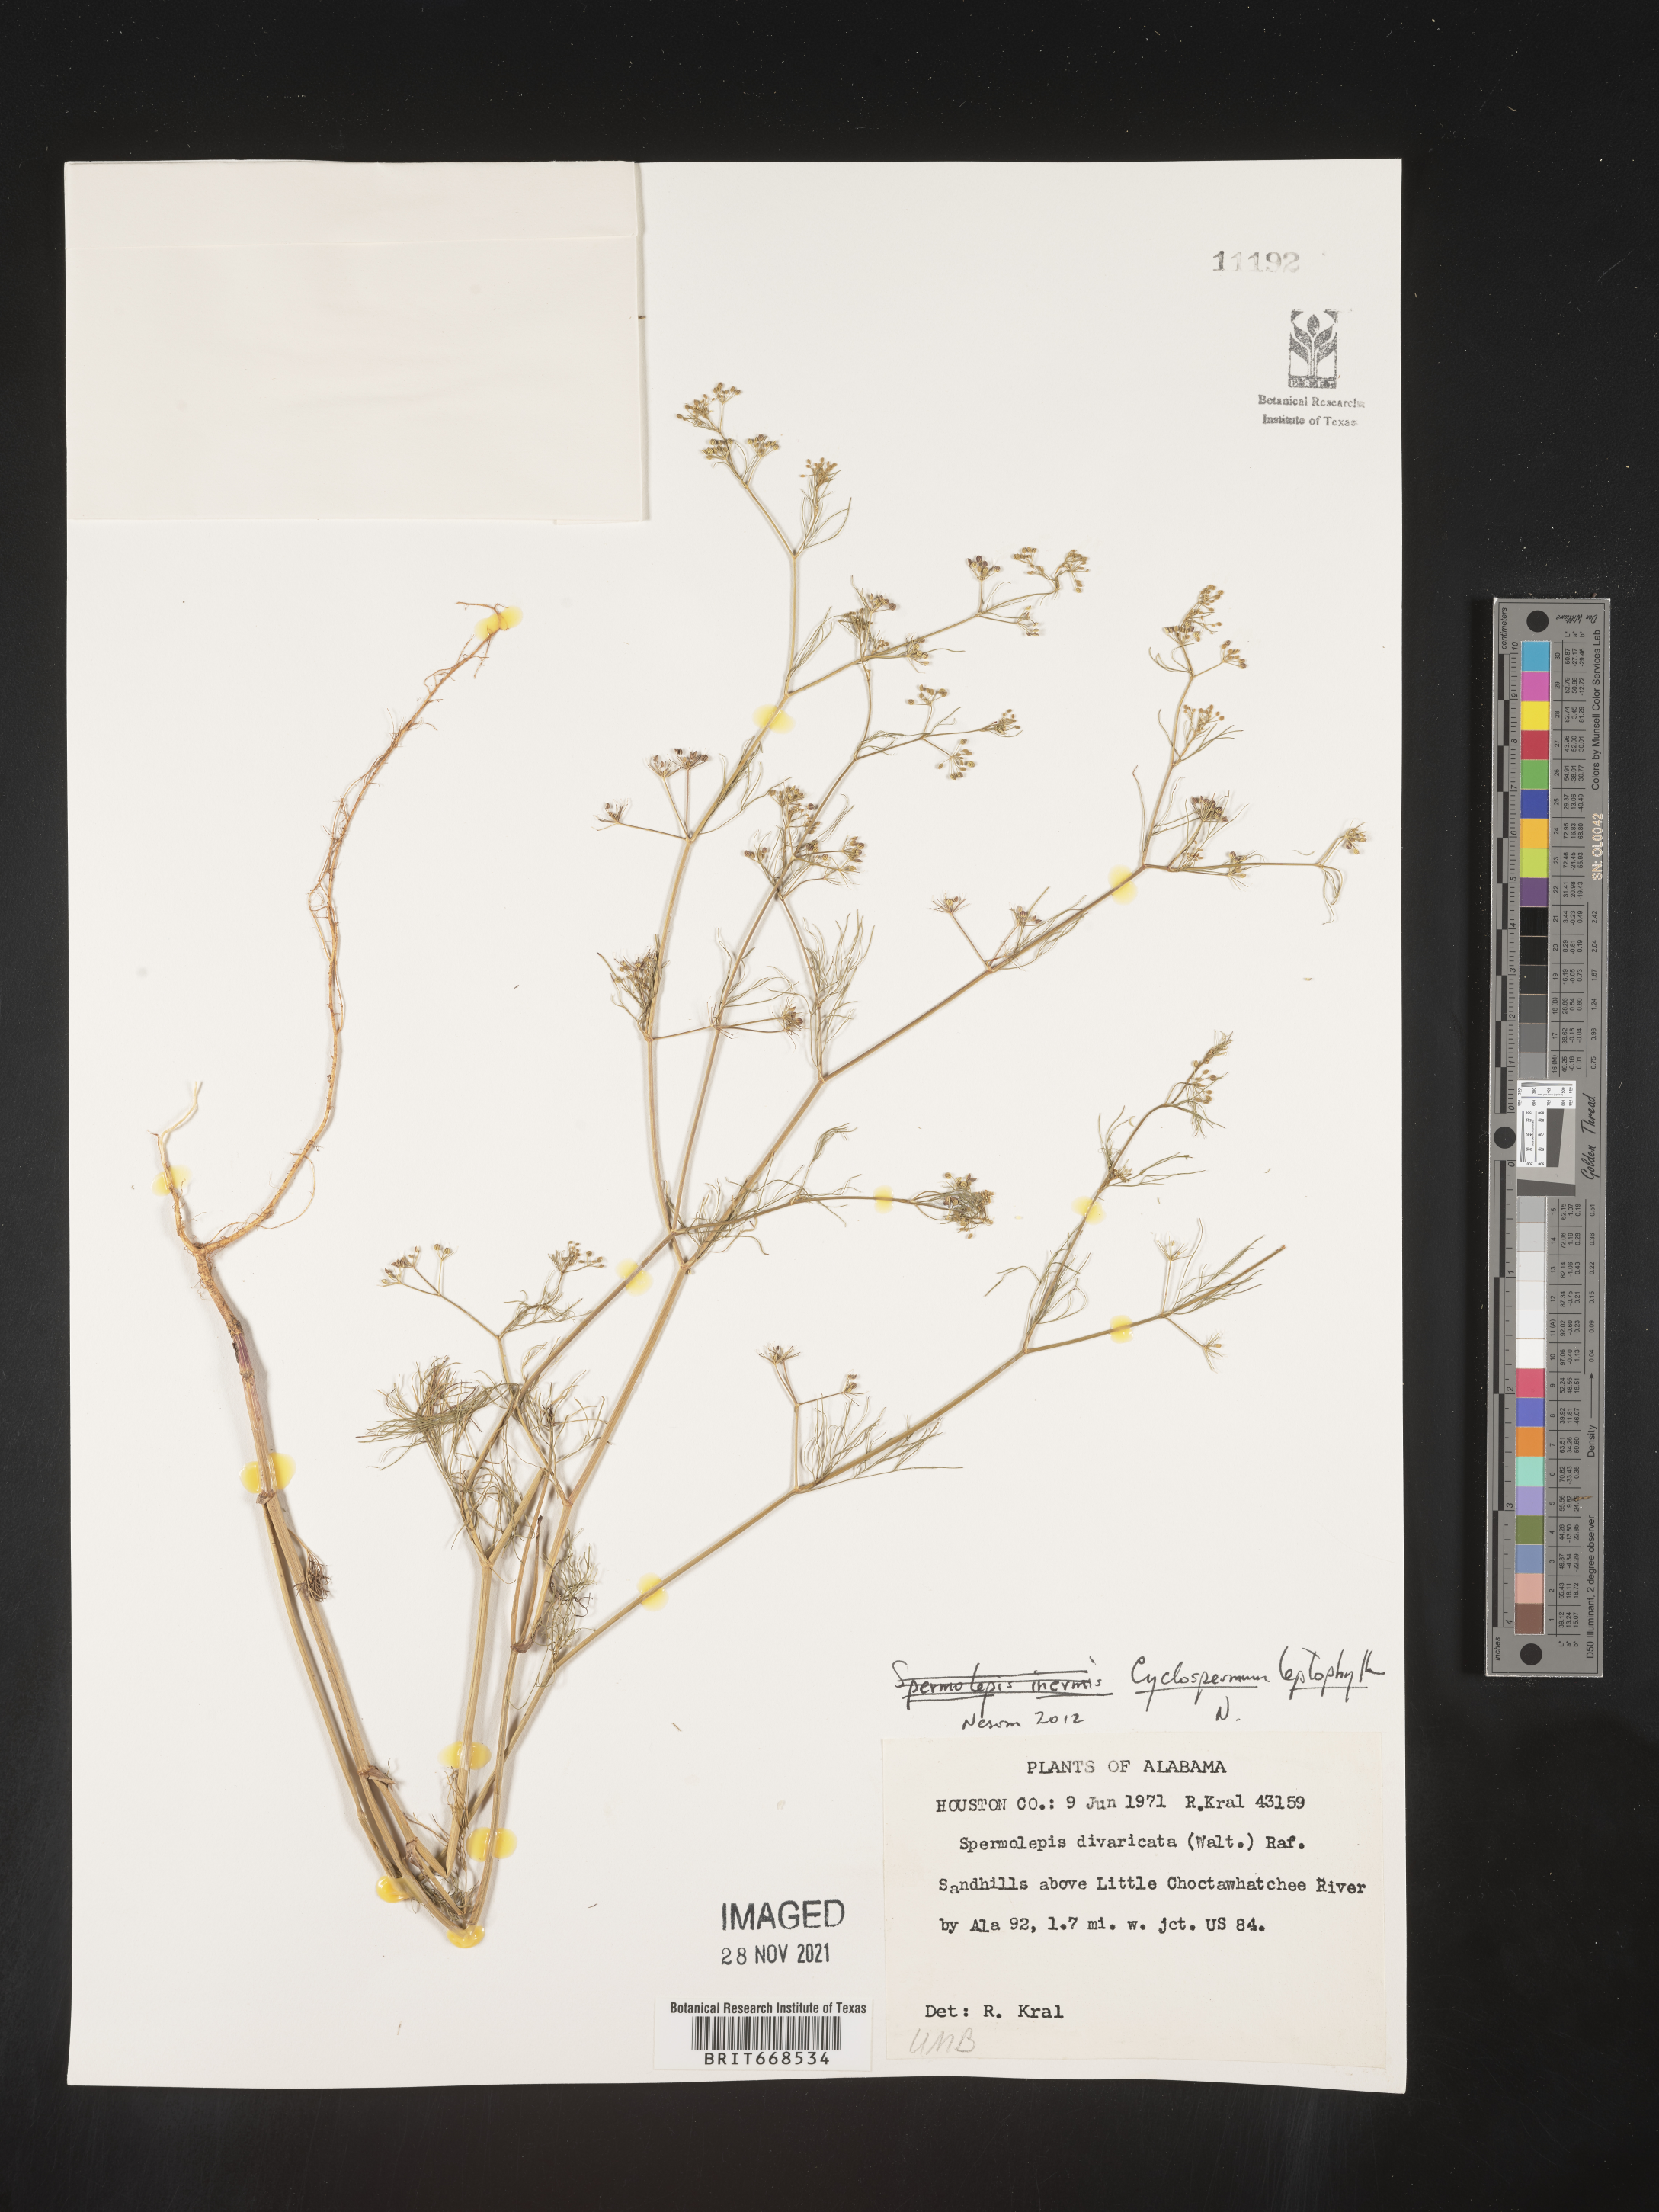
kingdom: Plantae
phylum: Tracheophyta
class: Magnoliopsida
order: Apiales
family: Apiaceae
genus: Cyclospermum
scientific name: Cyclospermum leptophyllum
